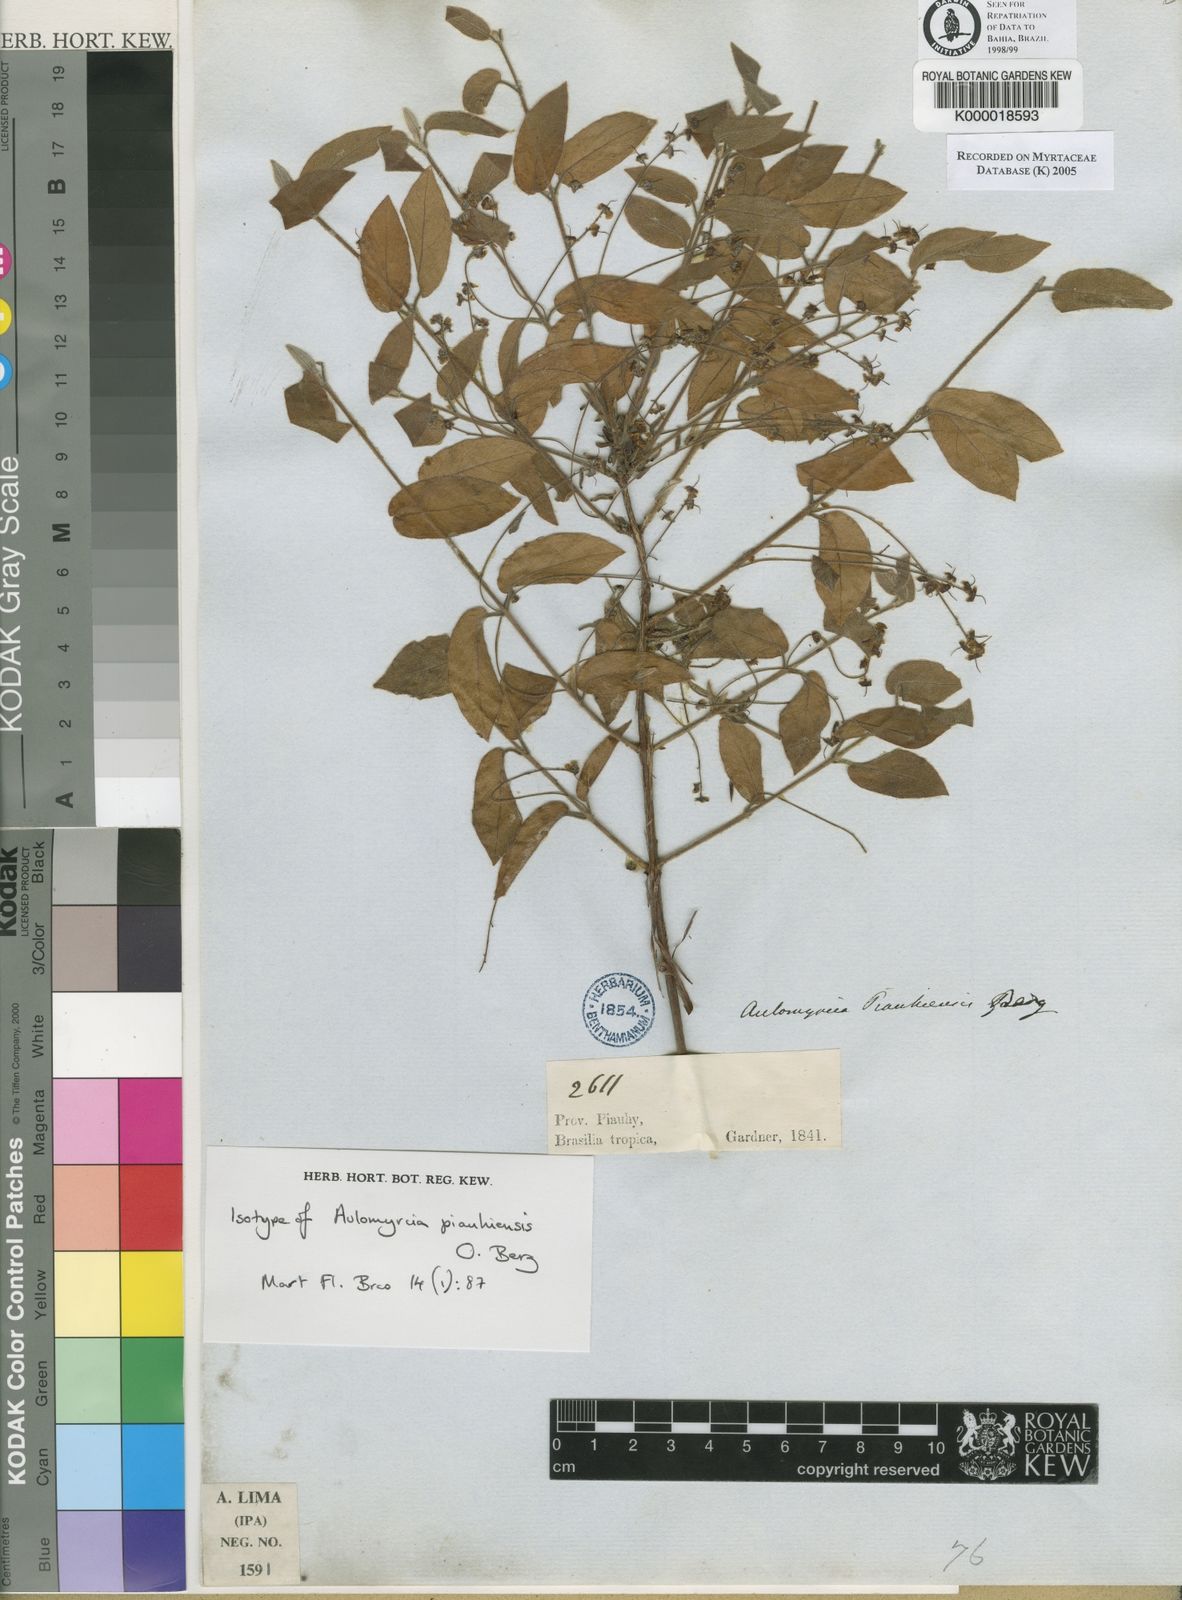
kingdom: Plantae
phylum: Tracheophyta
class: Magnoliopsida
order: Myrtales
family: Myrtaceae
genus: Myrcia
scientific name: Myrcia tomentosa
